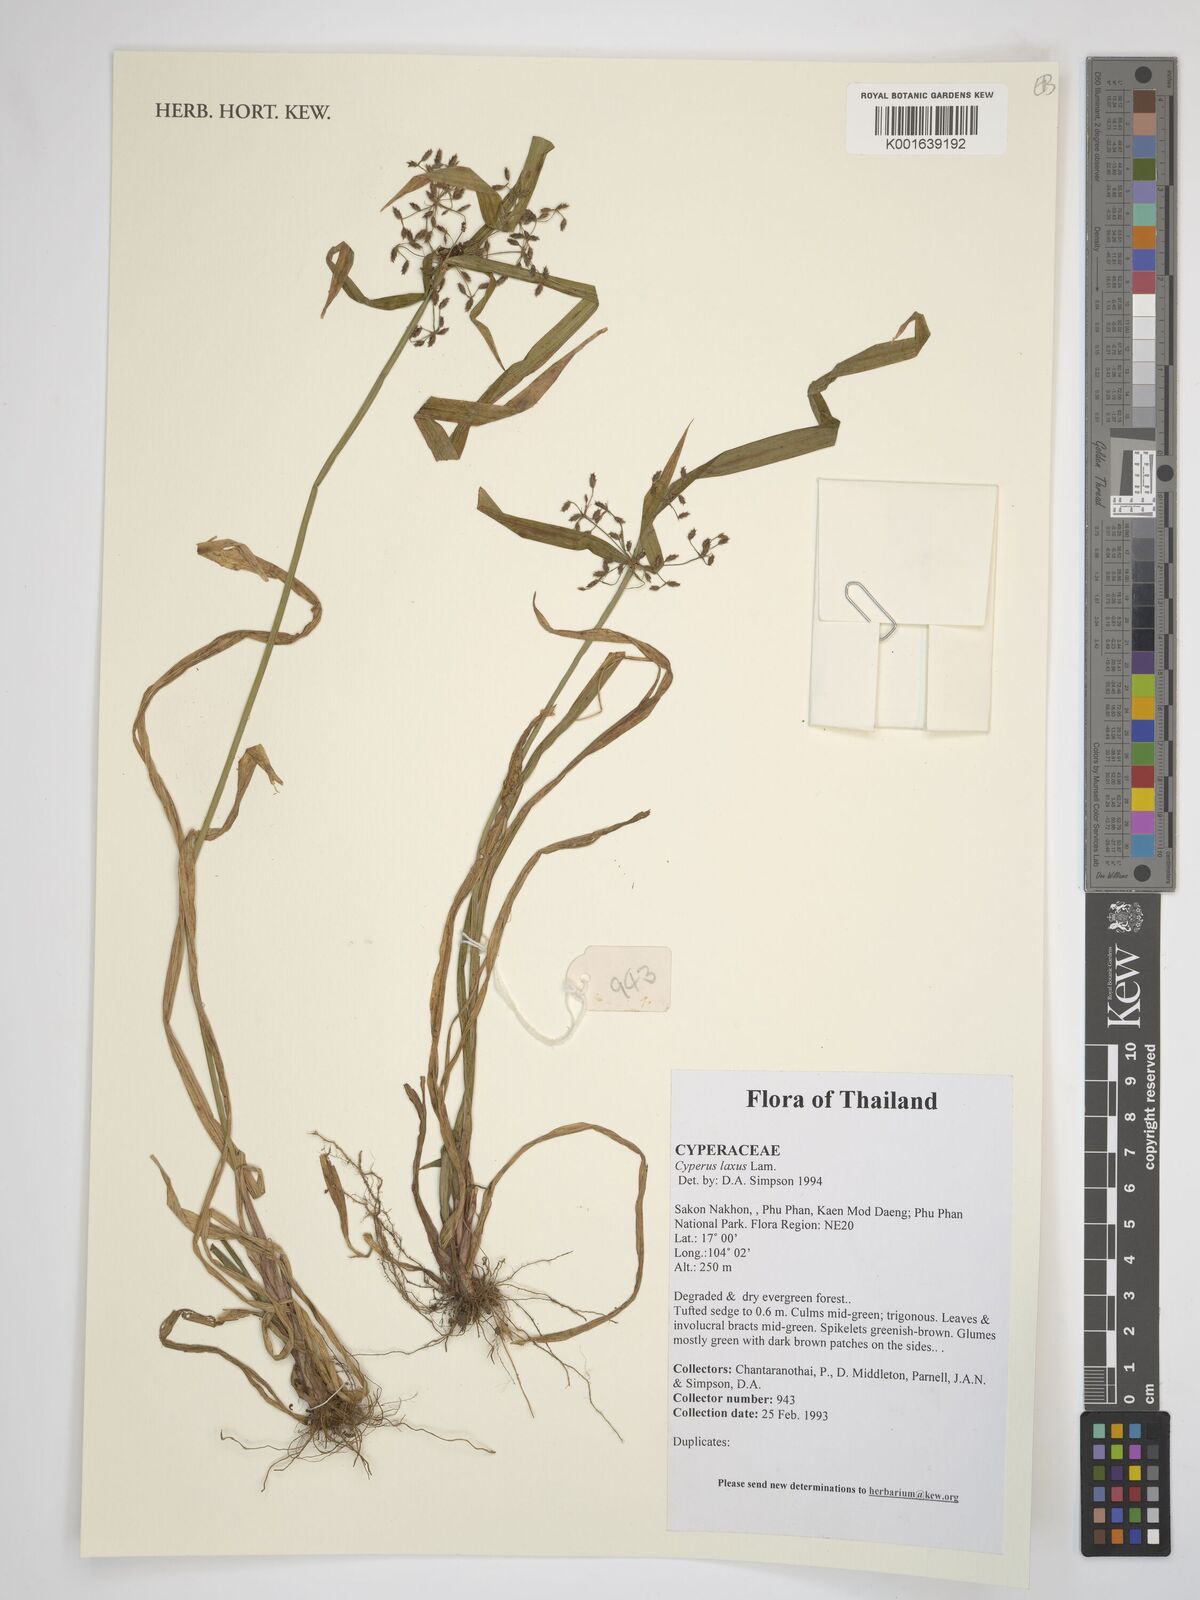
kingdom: Plantae
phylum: Tracheophyta
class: Liliopsida
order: Poales
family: Cyperaceae
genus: Cyperus
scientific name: Cyperus laxus
